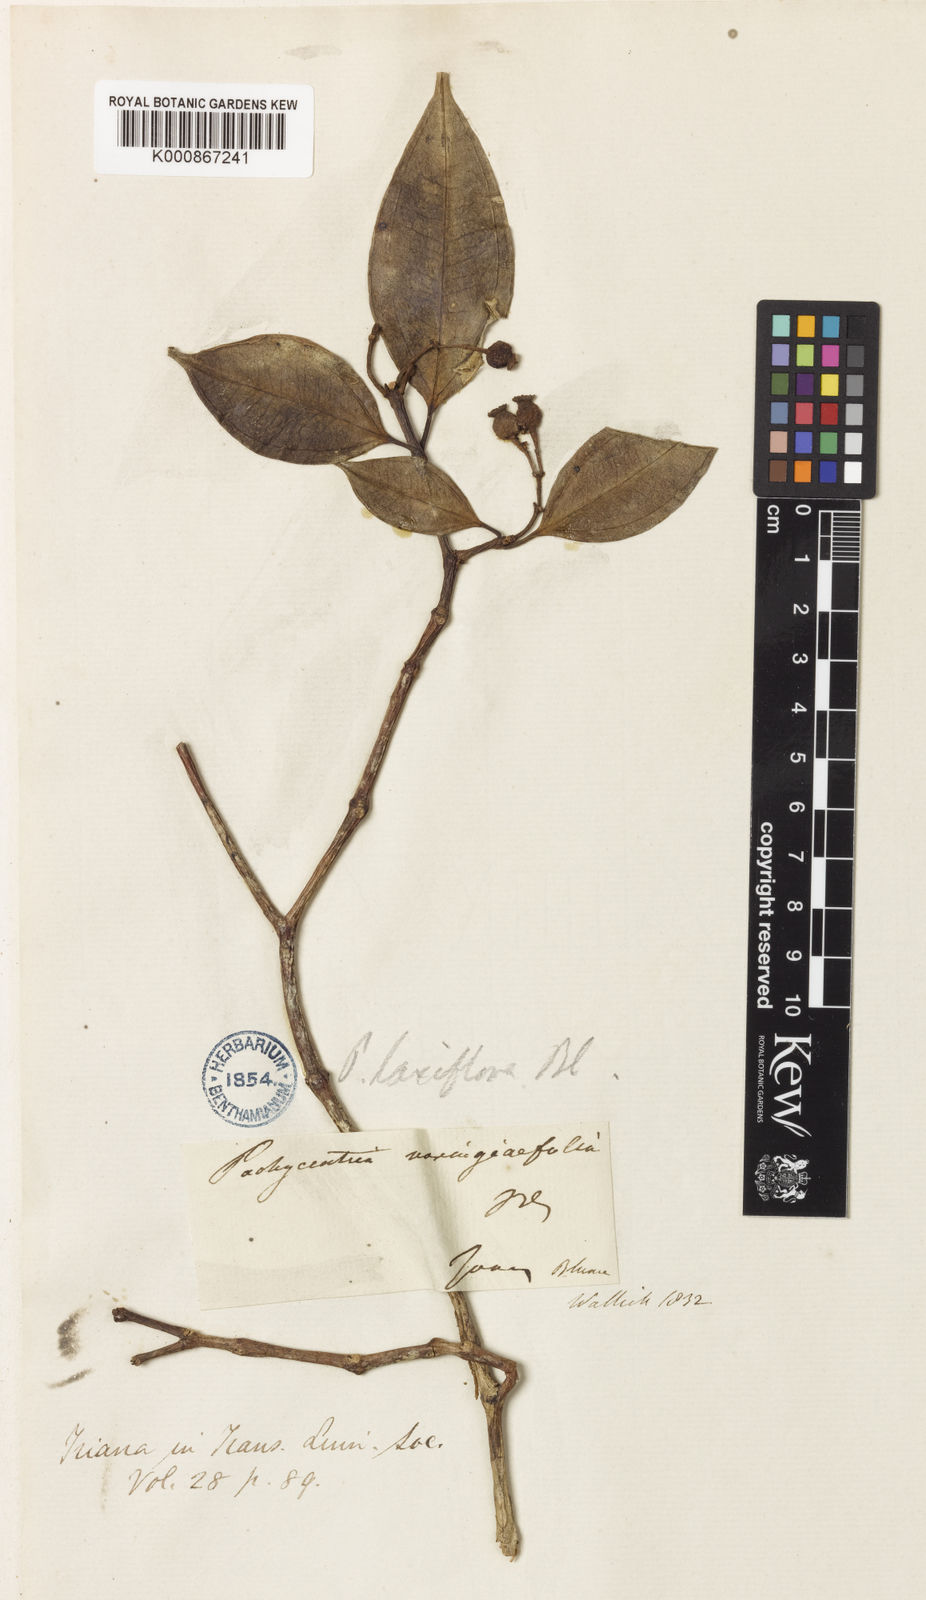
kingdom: Plantae
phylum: Tracheophyta
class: Magnoliopsida
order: Myrtales
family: Melastomataceae
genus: Pachycentria
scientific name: Pachycentria varingiaefolia
